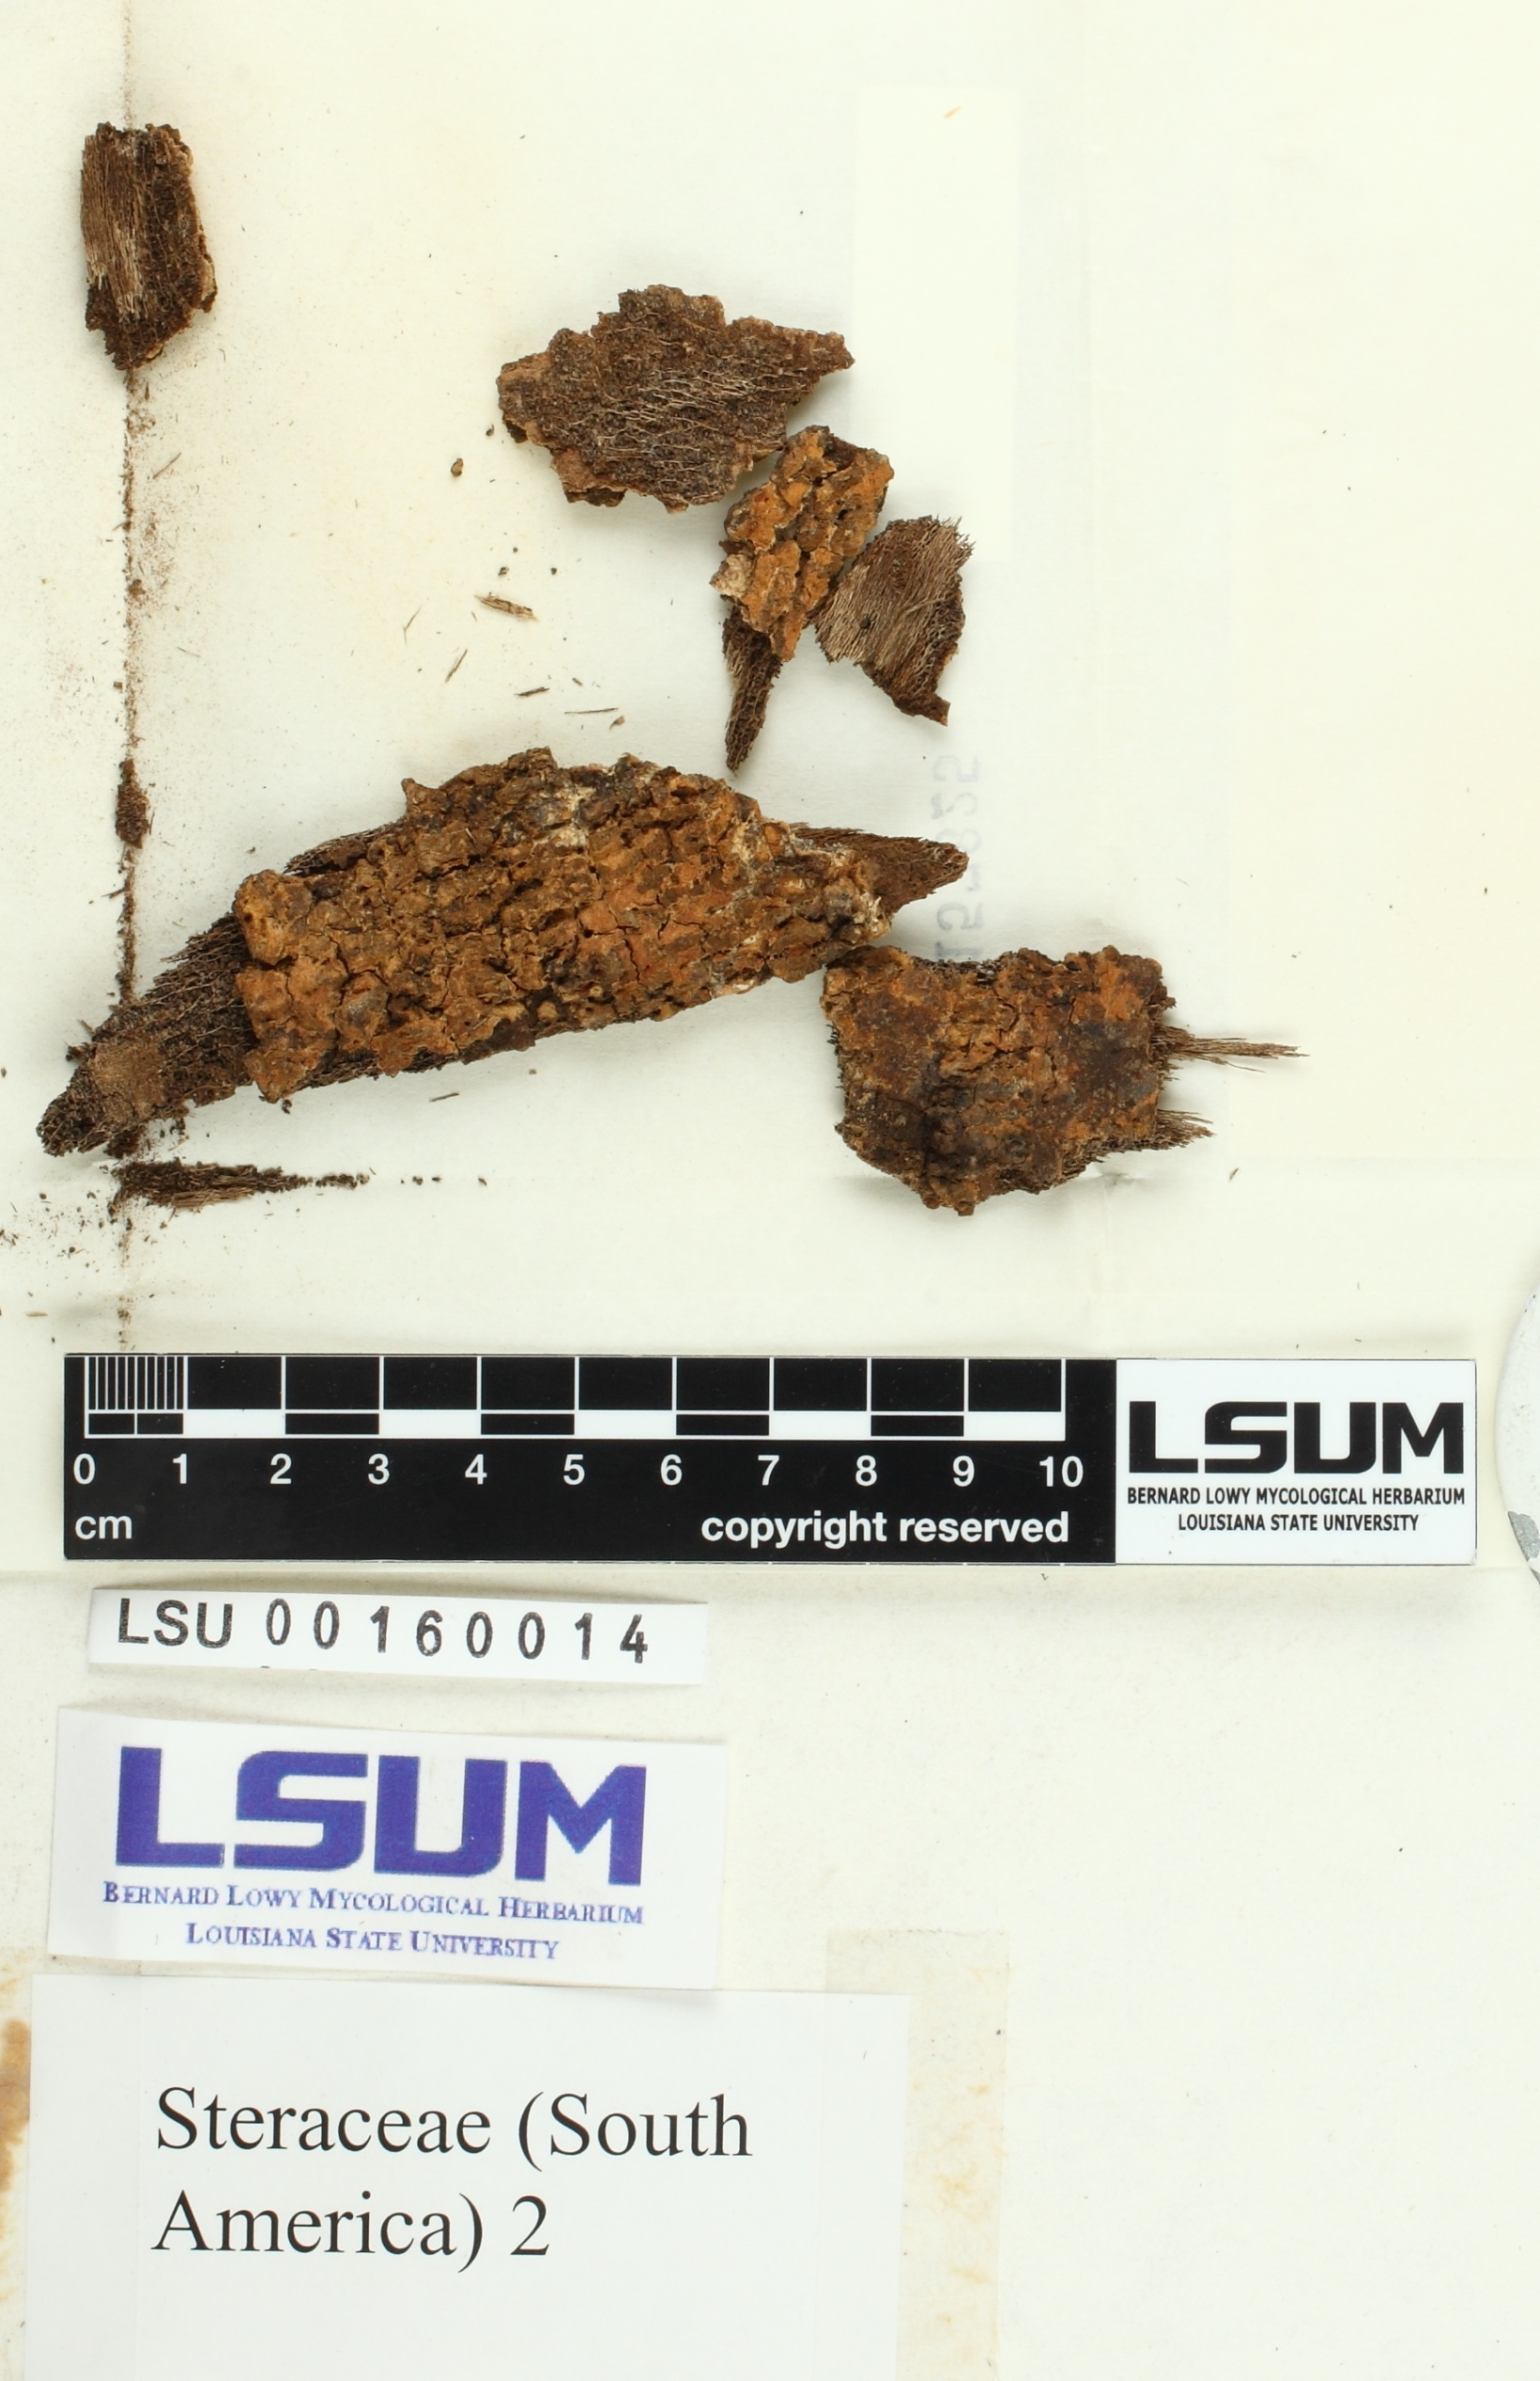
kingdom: Fungi
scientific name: Fungi
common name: Fungi
